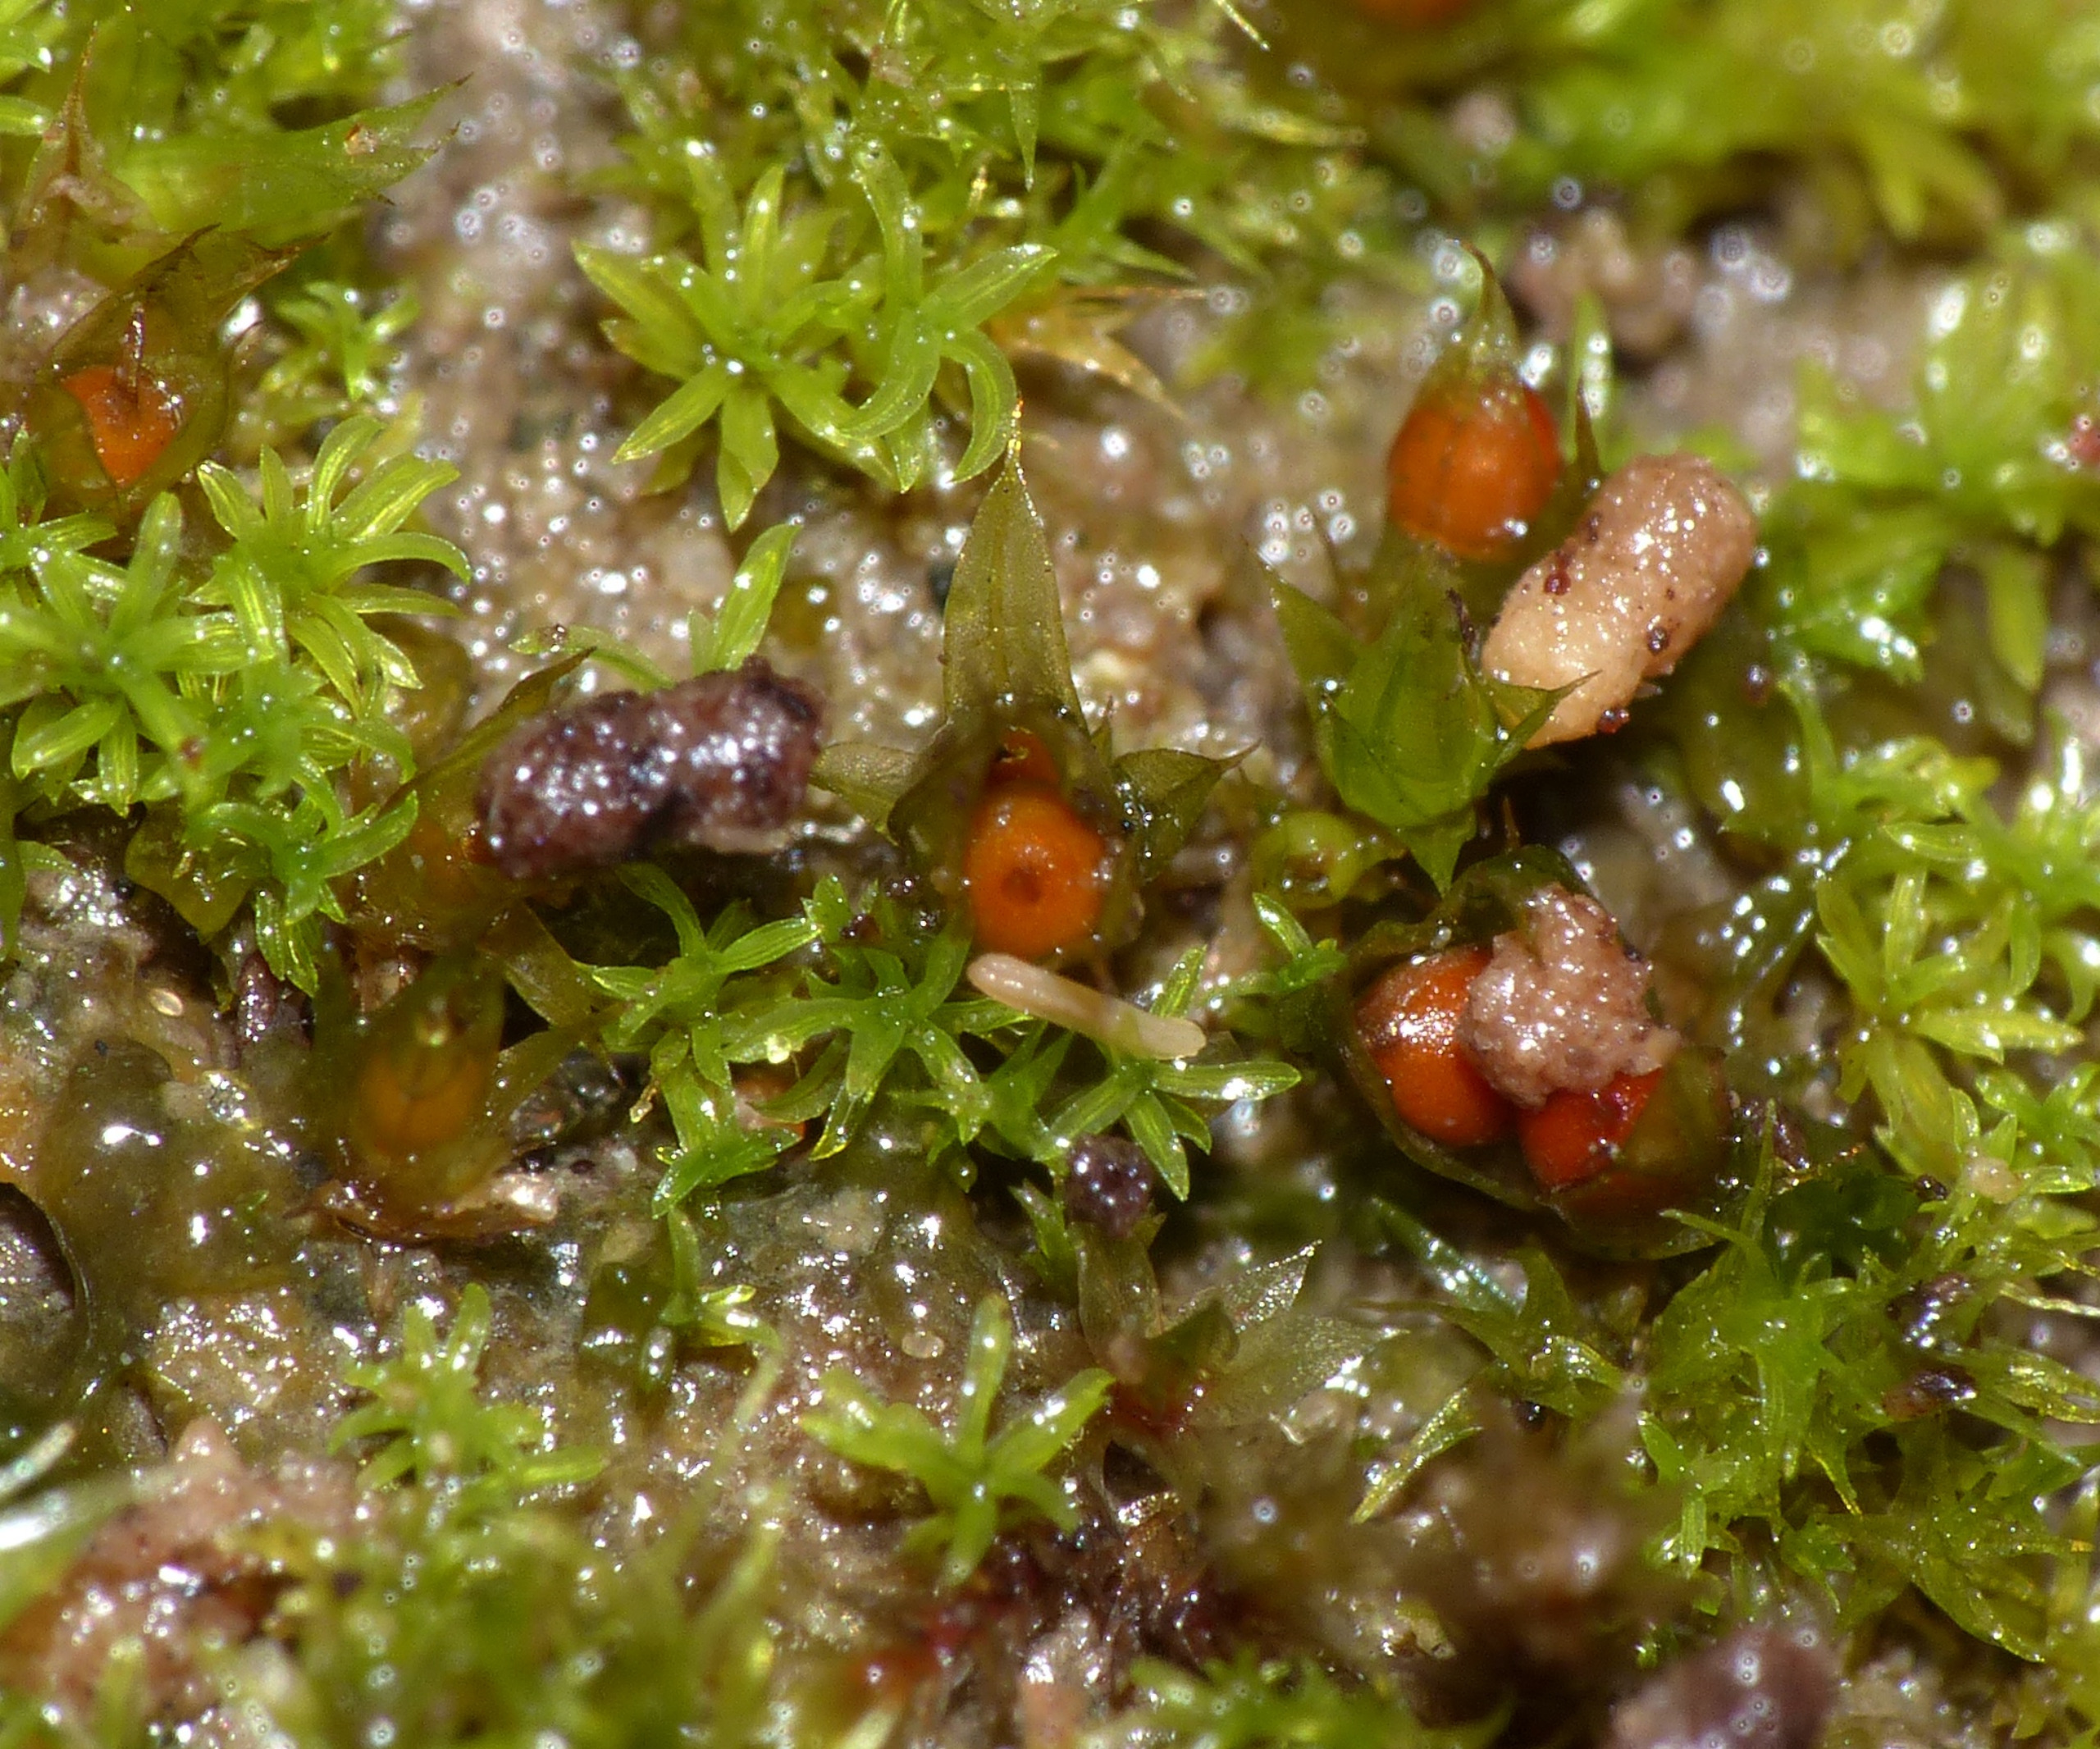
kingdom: Plantae
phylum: Bryophyta
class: Bryopsida
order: Pottiales
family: Pottiaceae
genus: Tortula
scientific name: Tortula acaulon
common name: Tilspidset dværgmos
